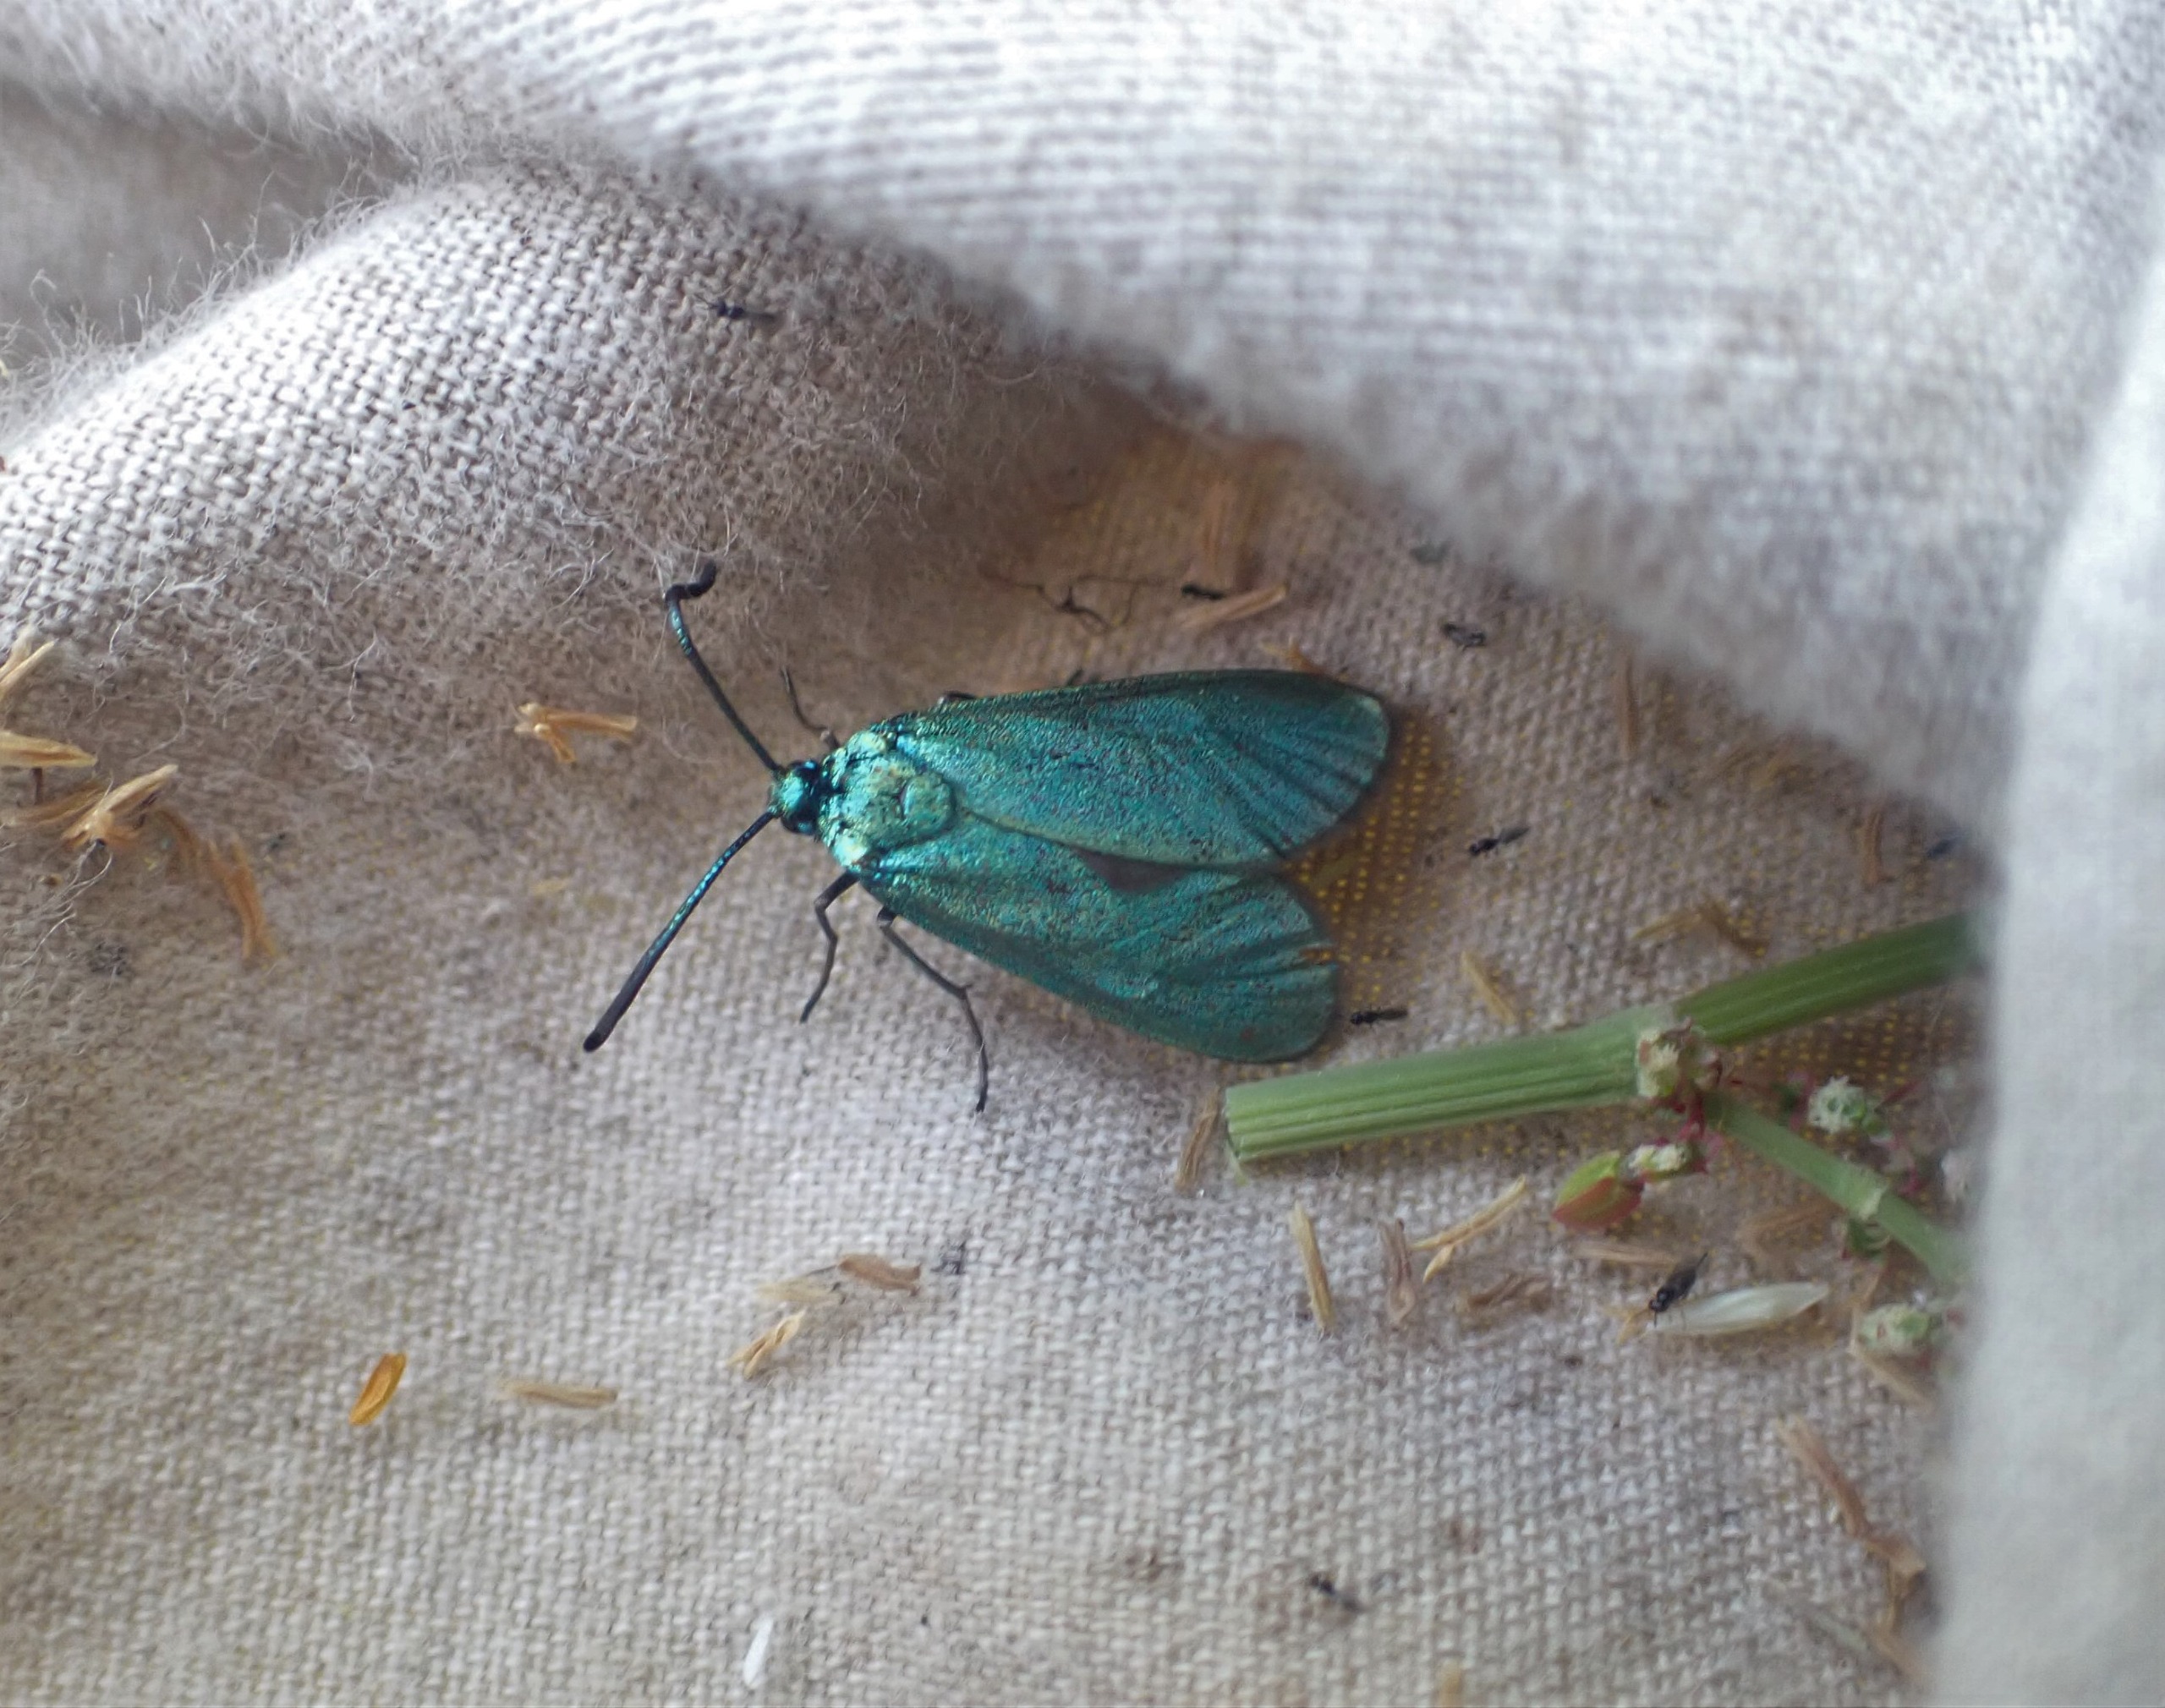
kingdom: Animalia
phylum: Arthropoda
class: Insecta
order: Lepidoptera
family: Zygaenidae
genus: Adscita
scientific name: Adscita statices
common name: Metalvinge
